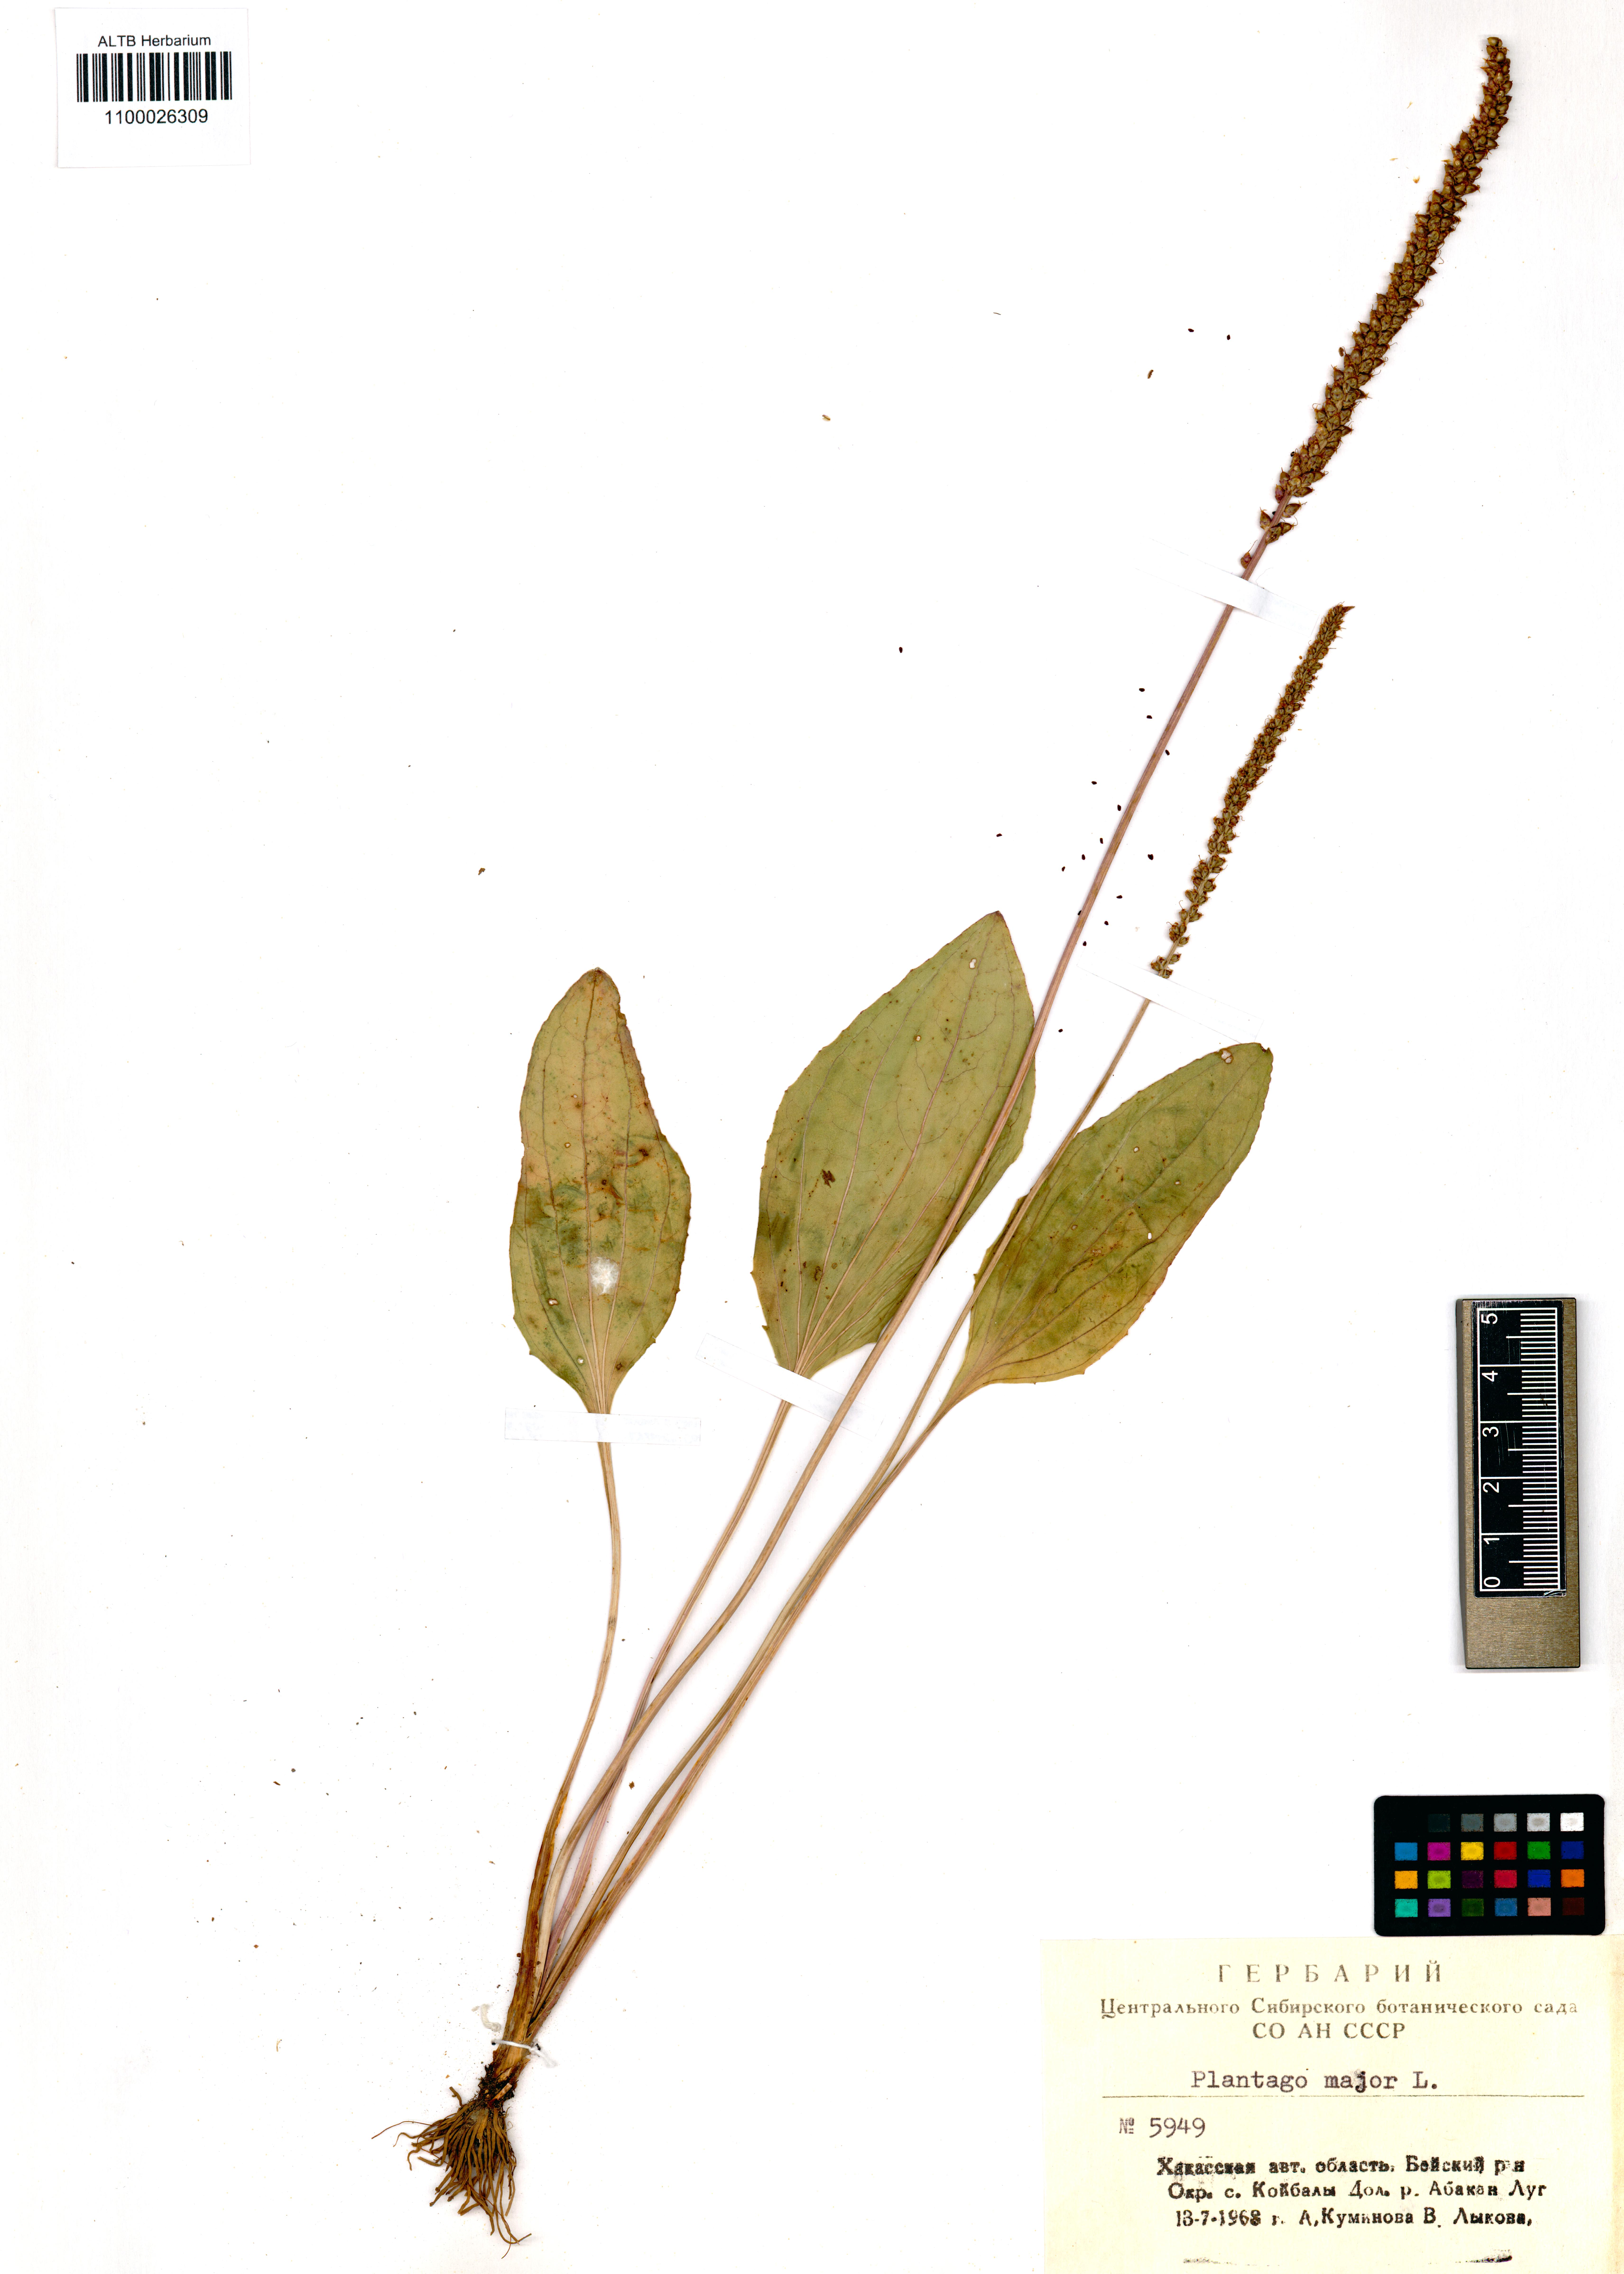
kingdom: Plantae
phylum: Tracheophyta
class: Magnoliopsida
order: Lamiales
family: Plantaginaceae
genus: Plantago
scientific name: Plantago major
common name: Common plantain
